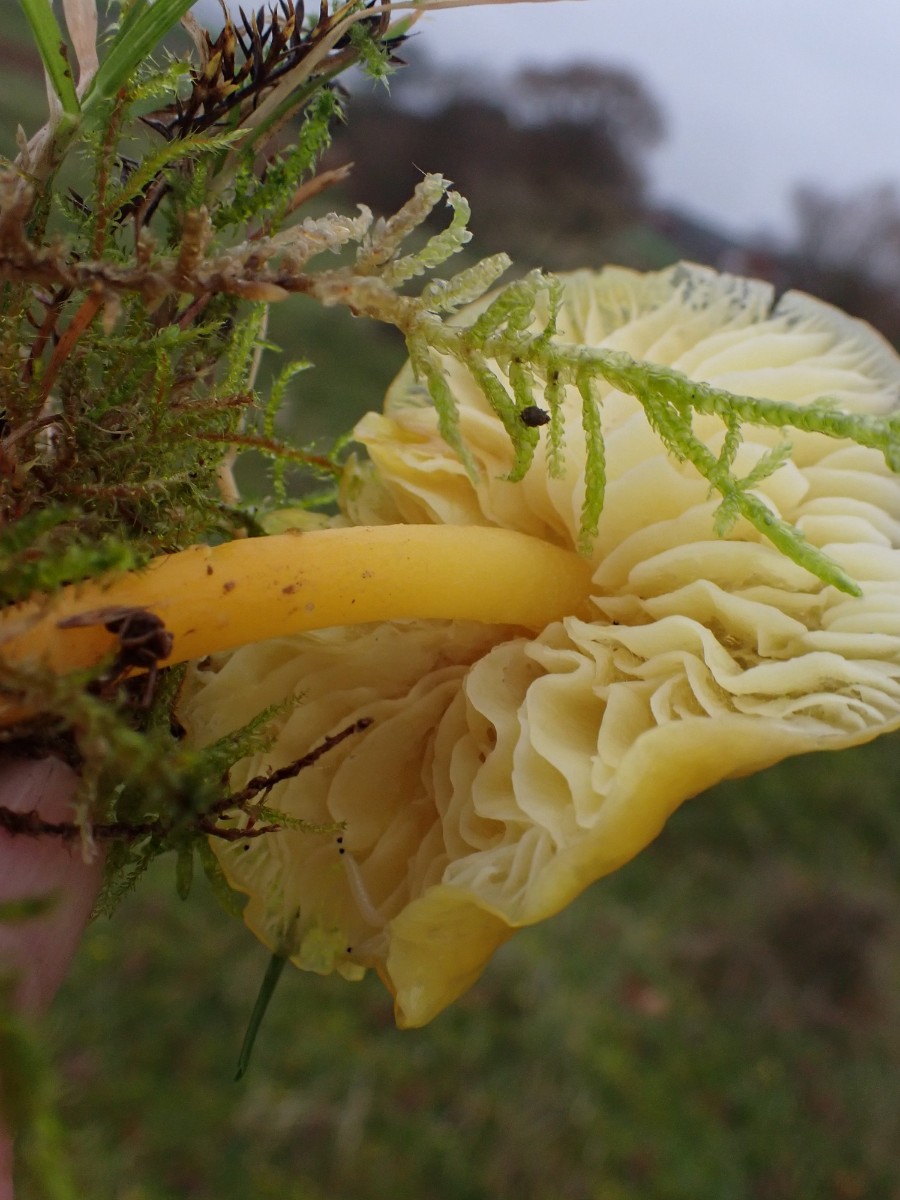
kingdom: Fungi
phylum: Basidiomycota
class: Agaricomycetes
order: Agaricales
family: Hygrophoraceae
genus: Hygrocybe
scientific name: Hygrocybe chlorophana
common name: gul vokshat
